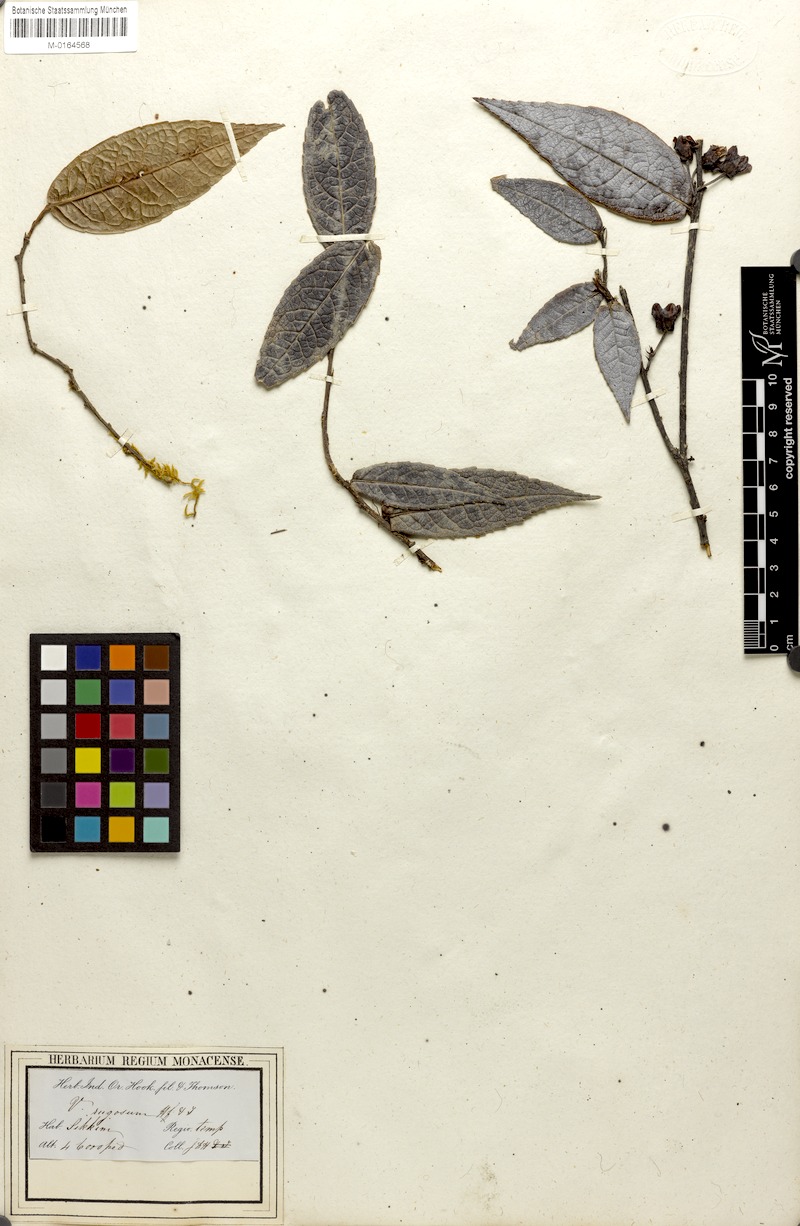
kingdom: Plantae
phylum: Tracheophyta
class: Magnoliopsida
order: Ericales
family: Ericaceae
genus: Agapetes
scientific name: Agapetes incurvata
